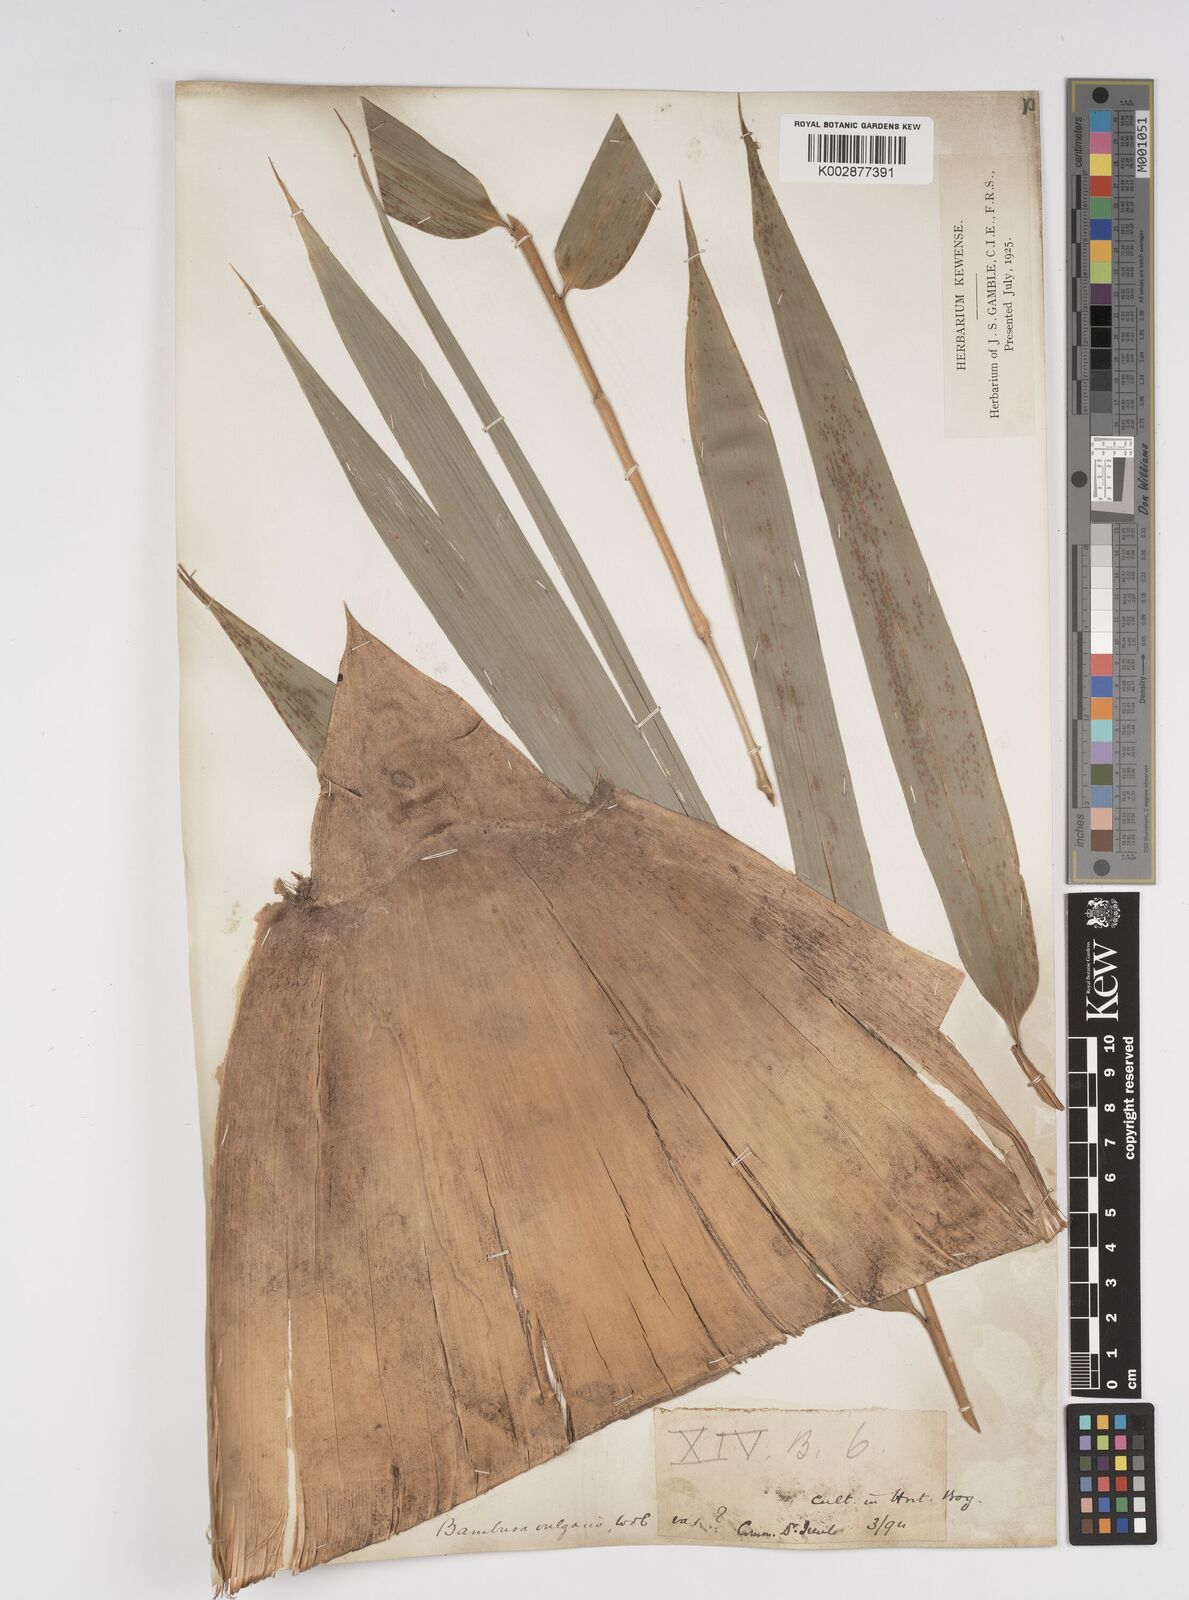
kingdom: Plantae
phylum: Tracheophyta
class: Liliopsida
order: Poales
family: Poaceae
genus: Bambusa
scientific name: Bambusa vulgaris
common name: Common bamboo
